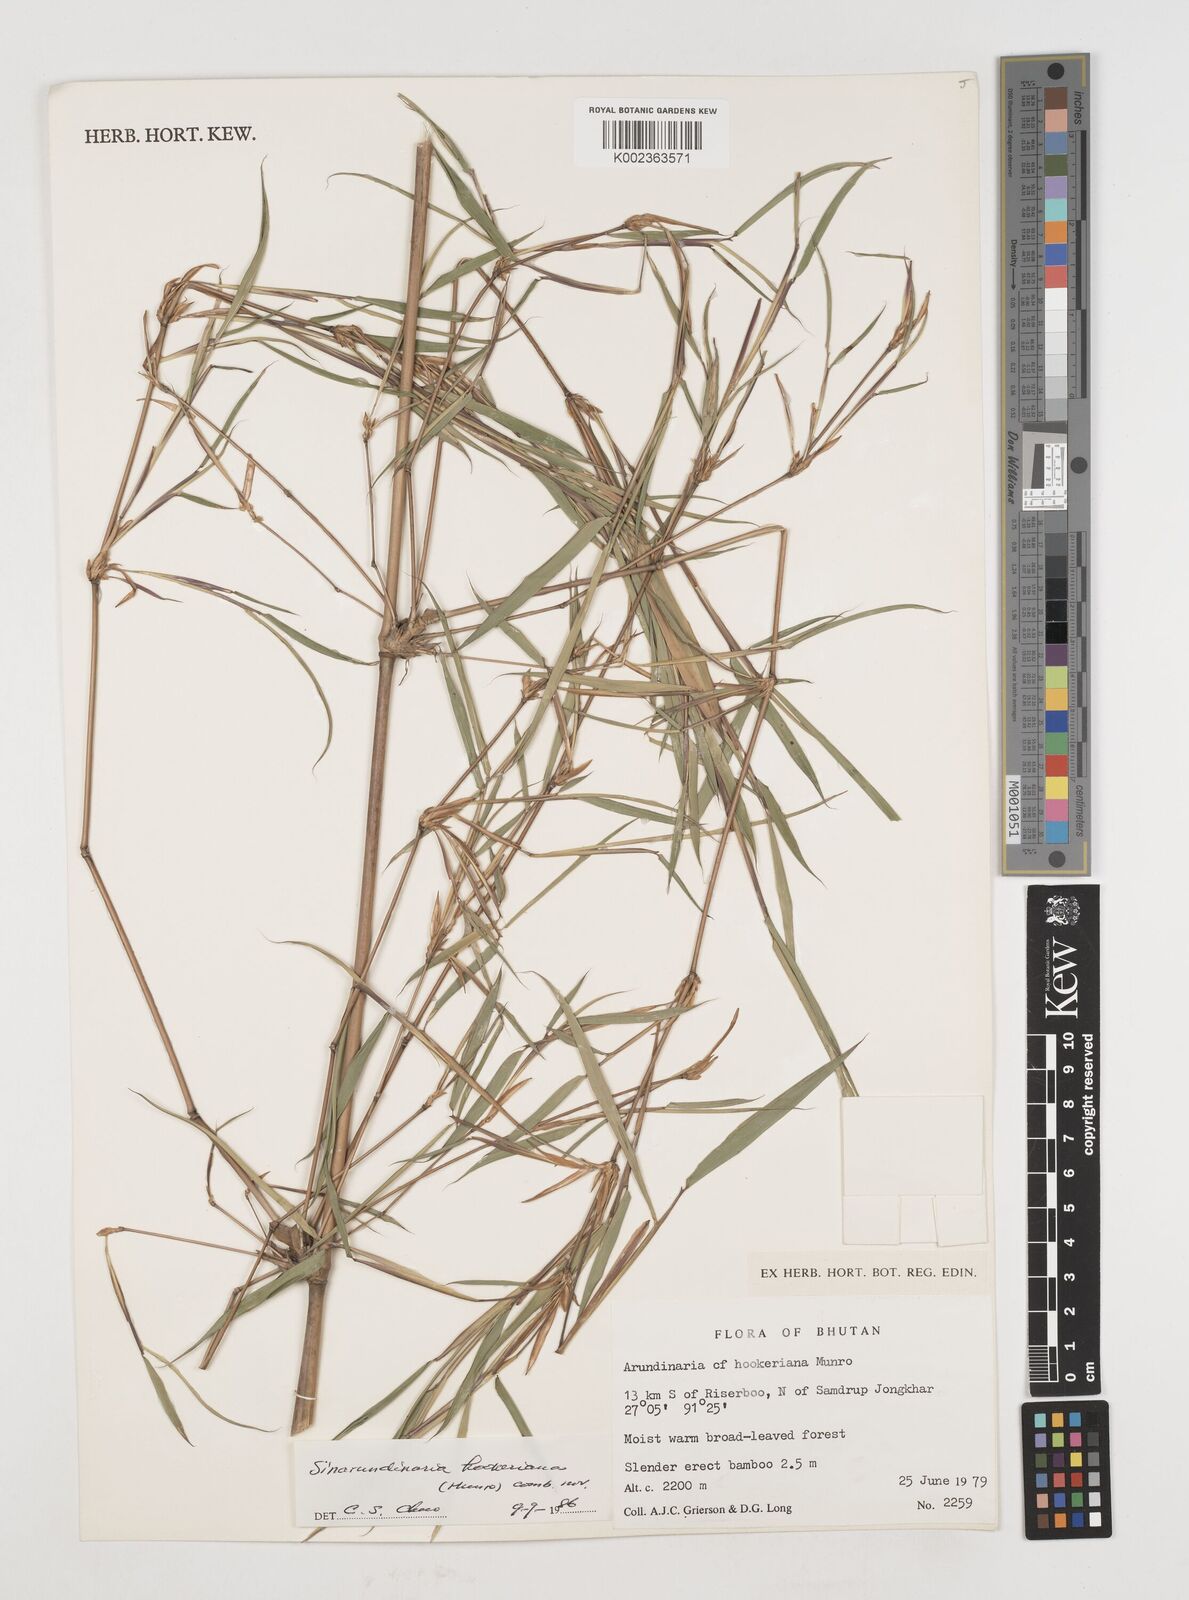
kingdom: Plantae
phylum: Tracheophyta
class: Liliopsida
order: Poales
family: Poaceae
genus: Himalayacalamus
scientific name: Himalayacalamus hookerianus
